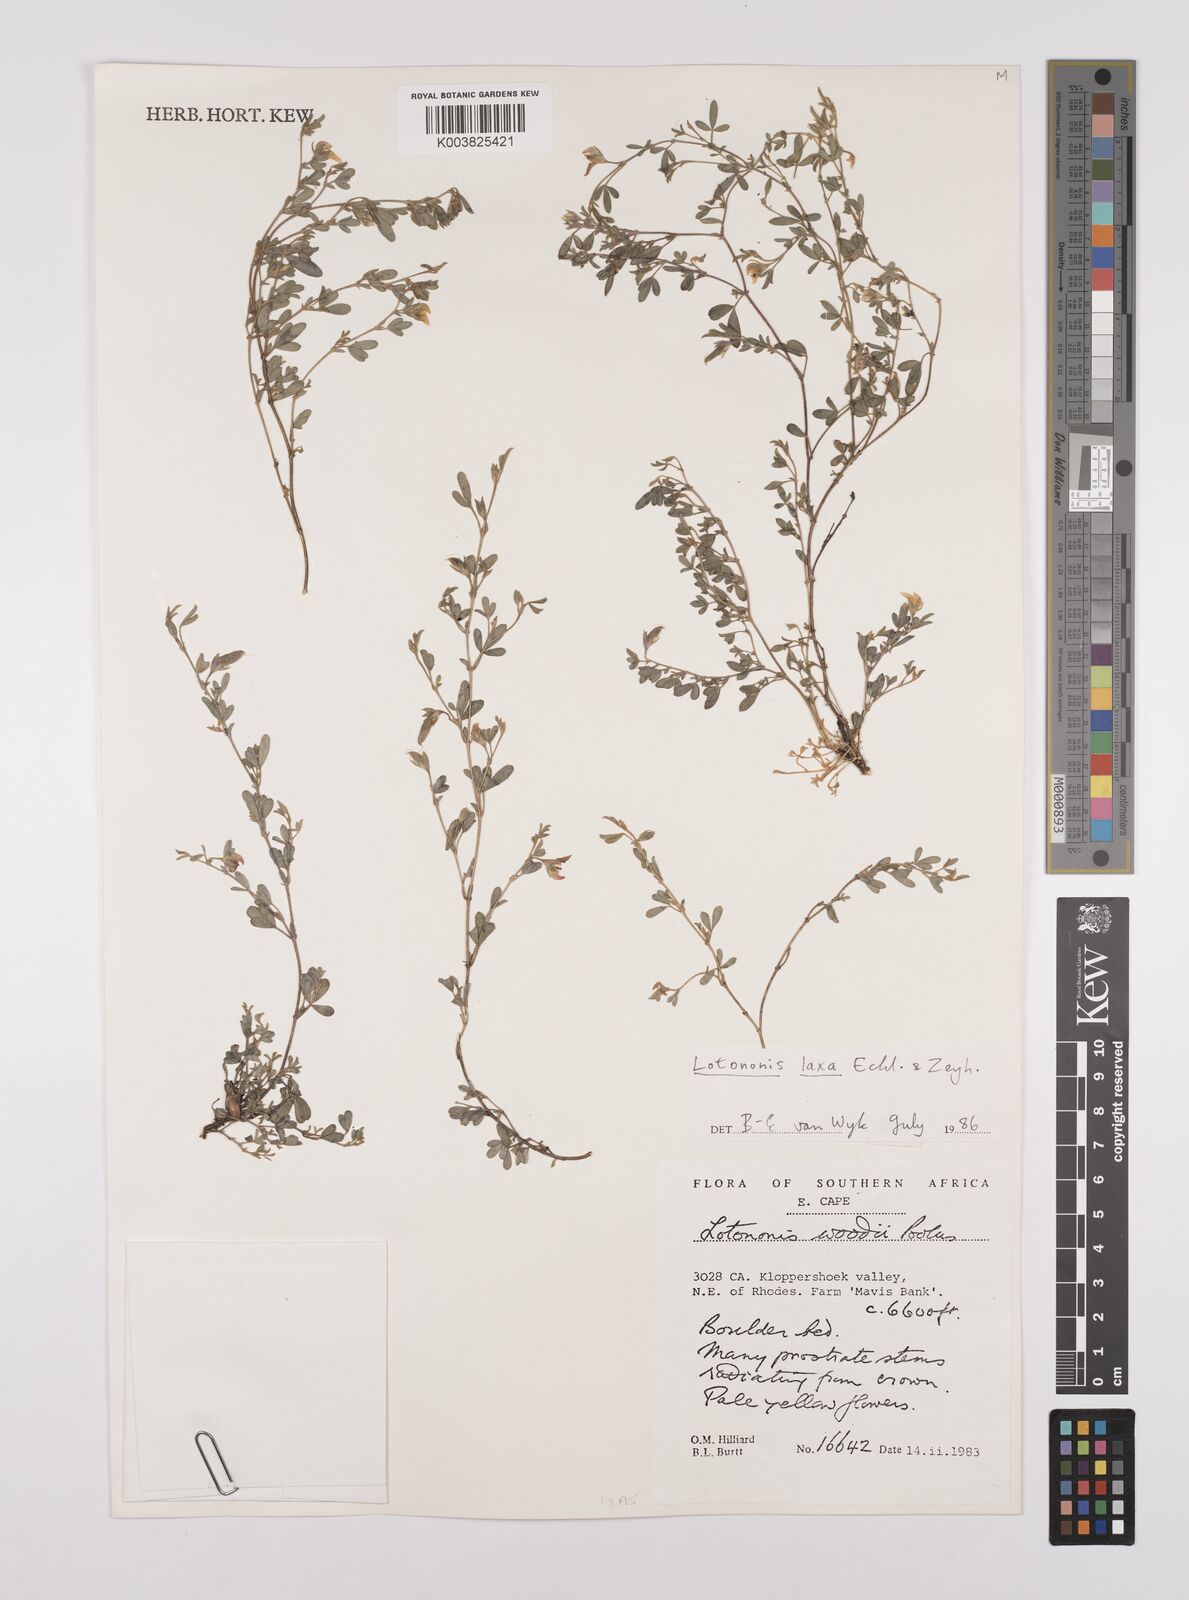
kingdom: Plantae
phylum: Tracheophyta
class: Magnoliopsida
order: Fabales
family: Fabaceae
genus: Lotononis
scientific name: Lotononis laxa
